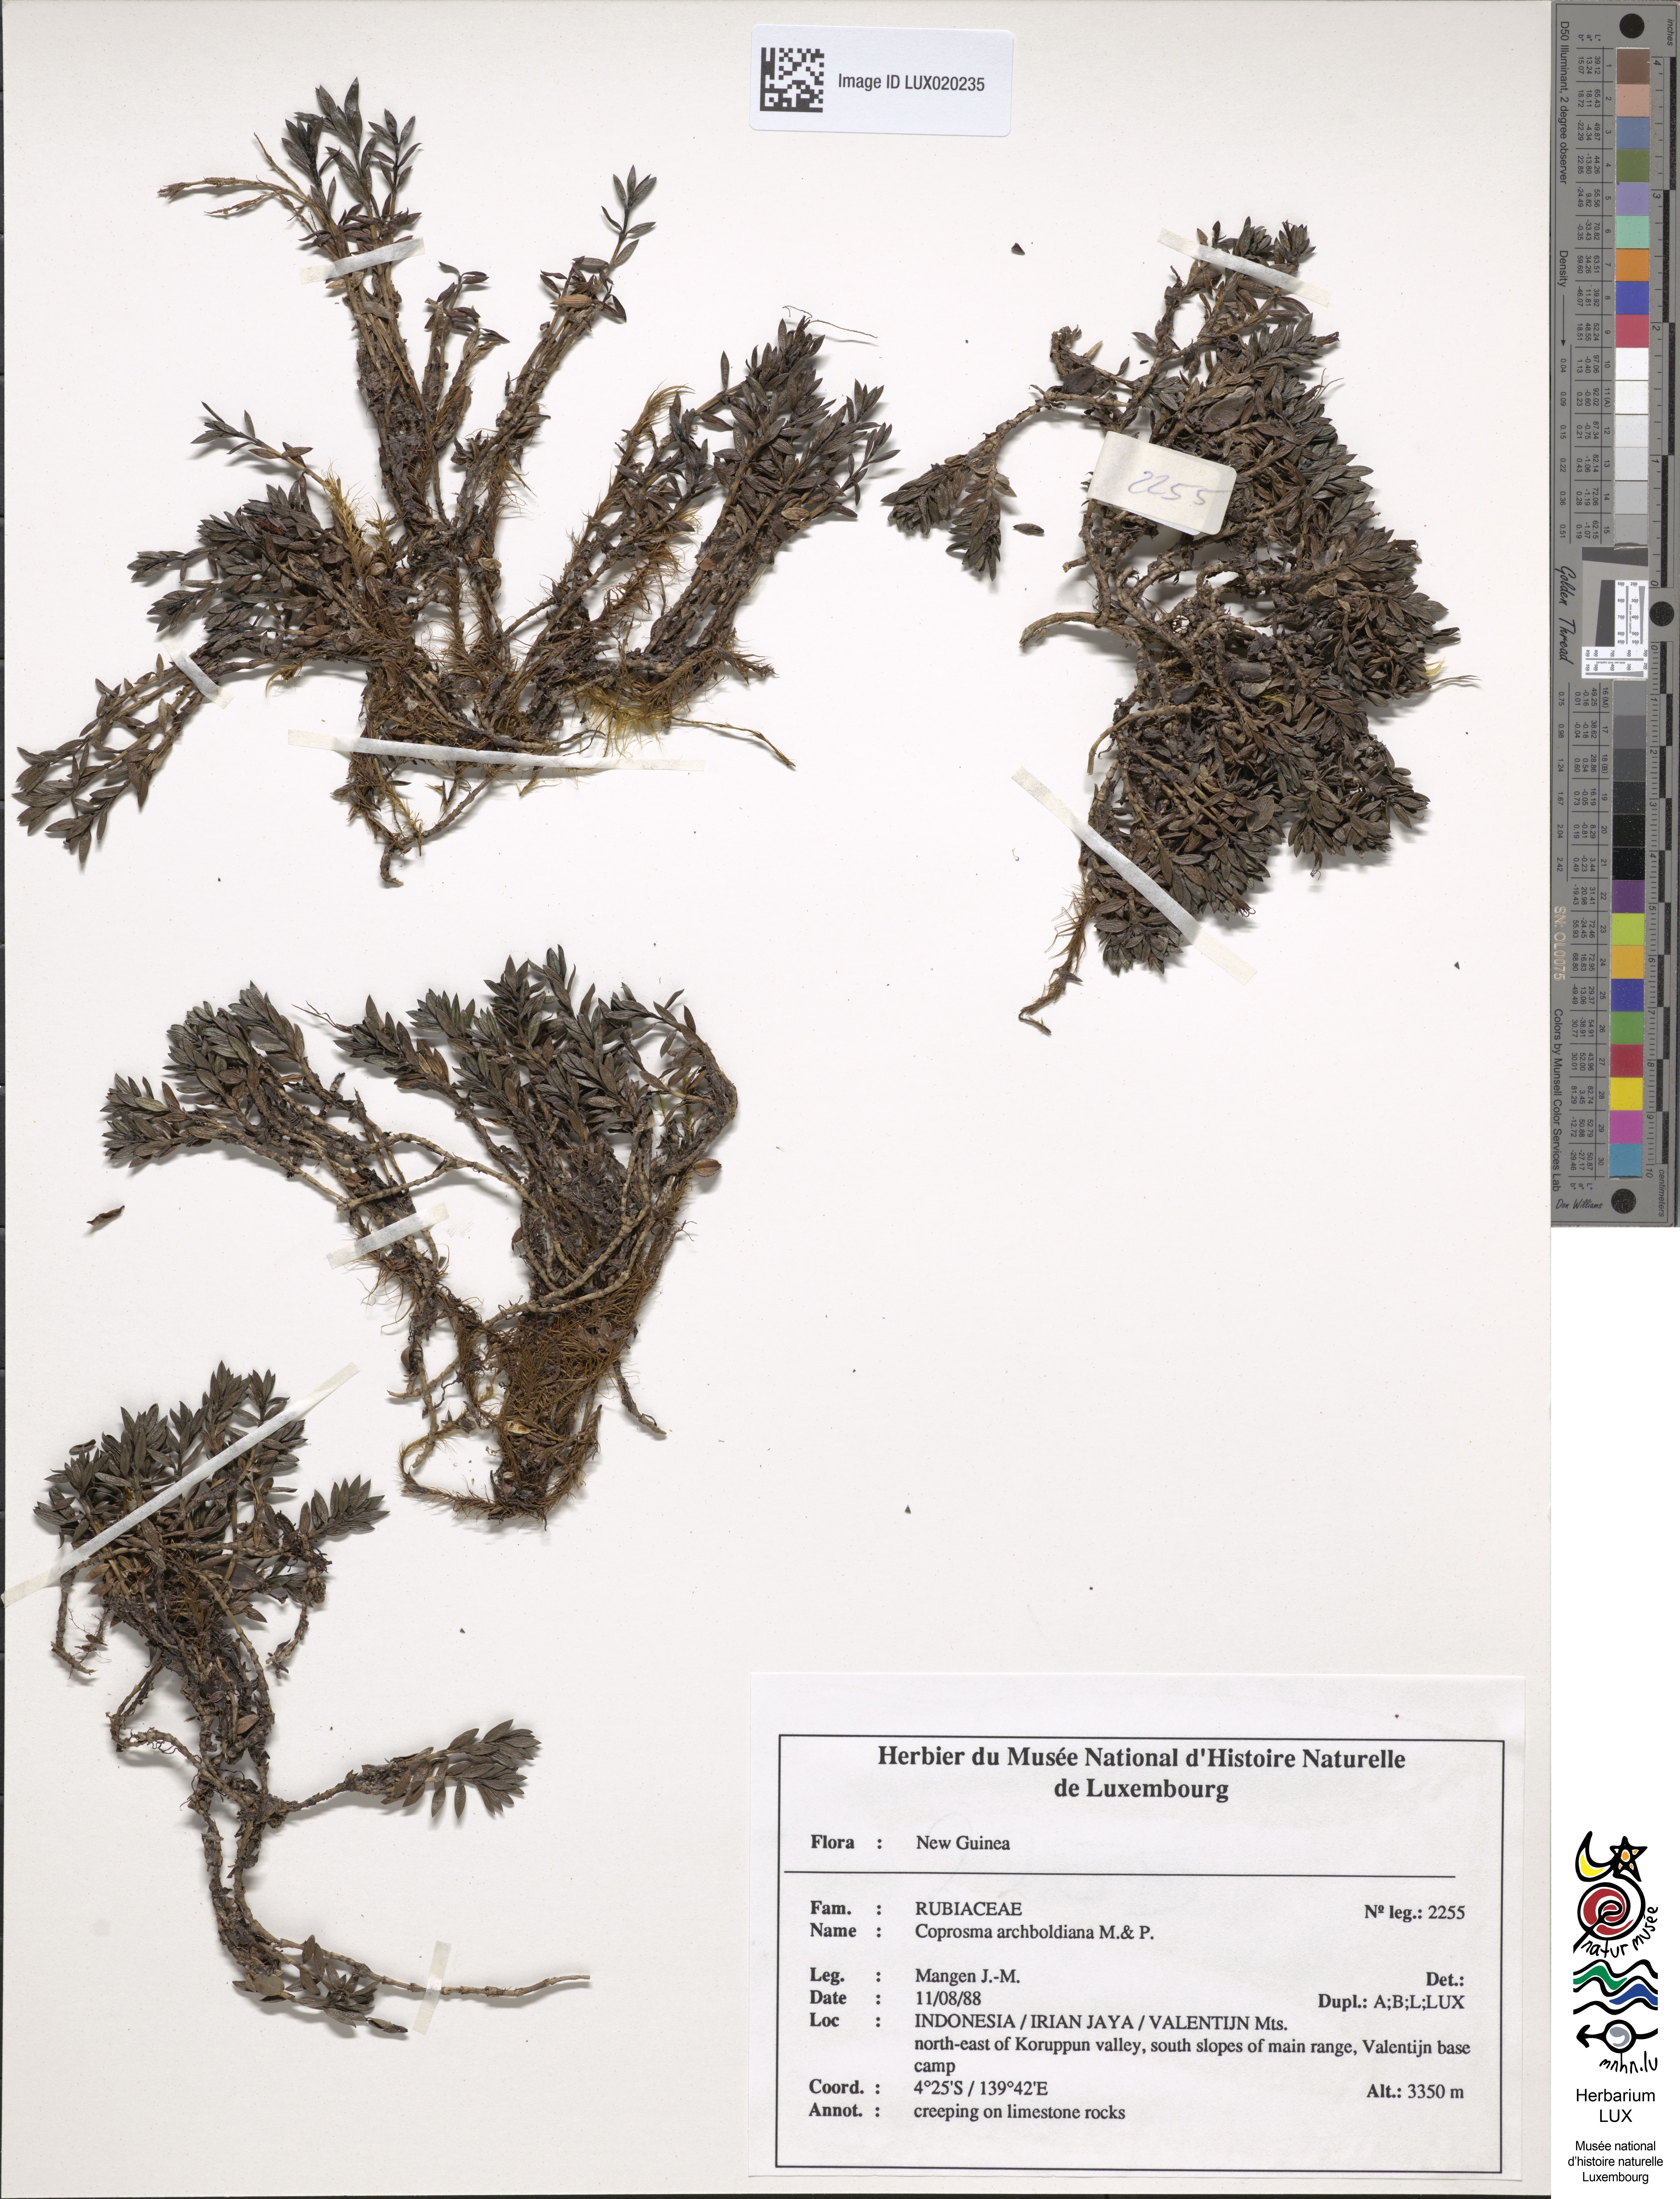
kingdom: Plantae
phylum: Tracheophyta
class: Magnoliopsida
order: Gentianales
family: Rubiaceae
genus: Coprosma
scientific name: Coprosma archboldiana
